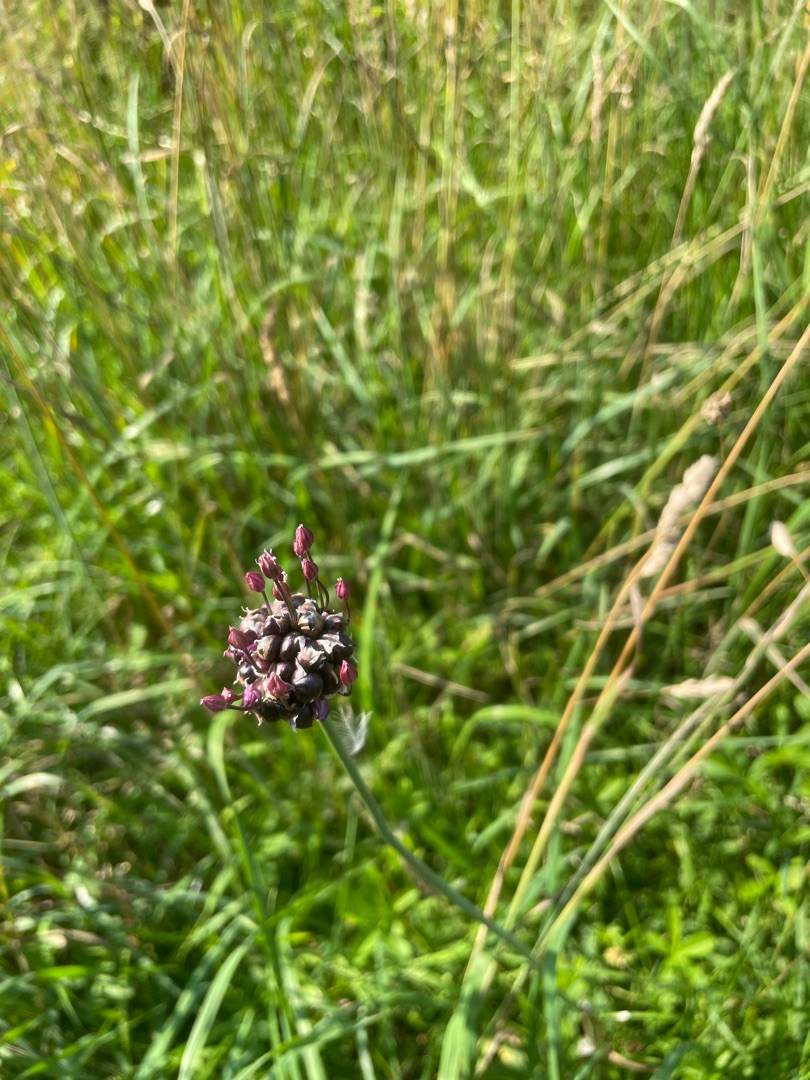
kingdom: Plantae
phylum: Tracheophyta
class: Liliopsida
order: Asparagales
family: Amaryllidaceae
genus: Allium
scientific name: Allium scorodoprasum
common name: Skov-løg
